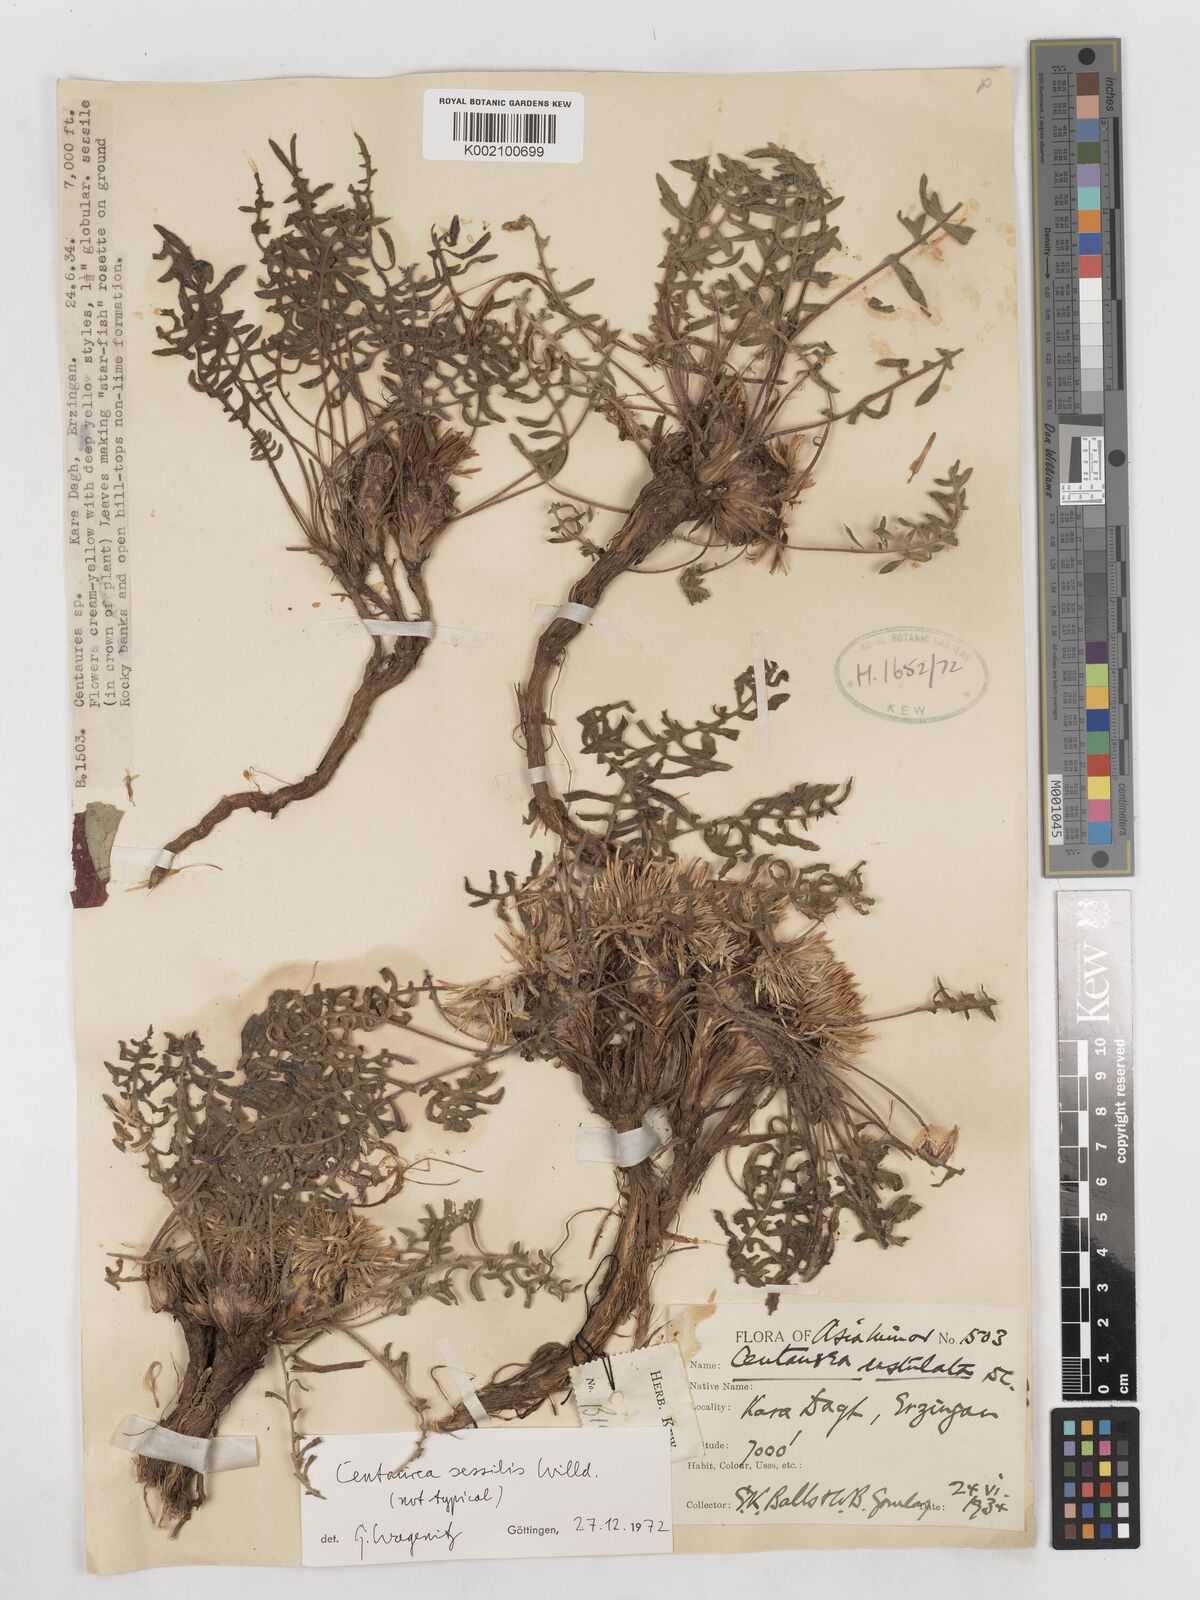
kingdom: Plantae
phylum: Tracheophyta
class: Magnoliopsida
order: Asterales
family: Asteraceae
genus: Centaurea
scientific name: Centaurea oltensis
